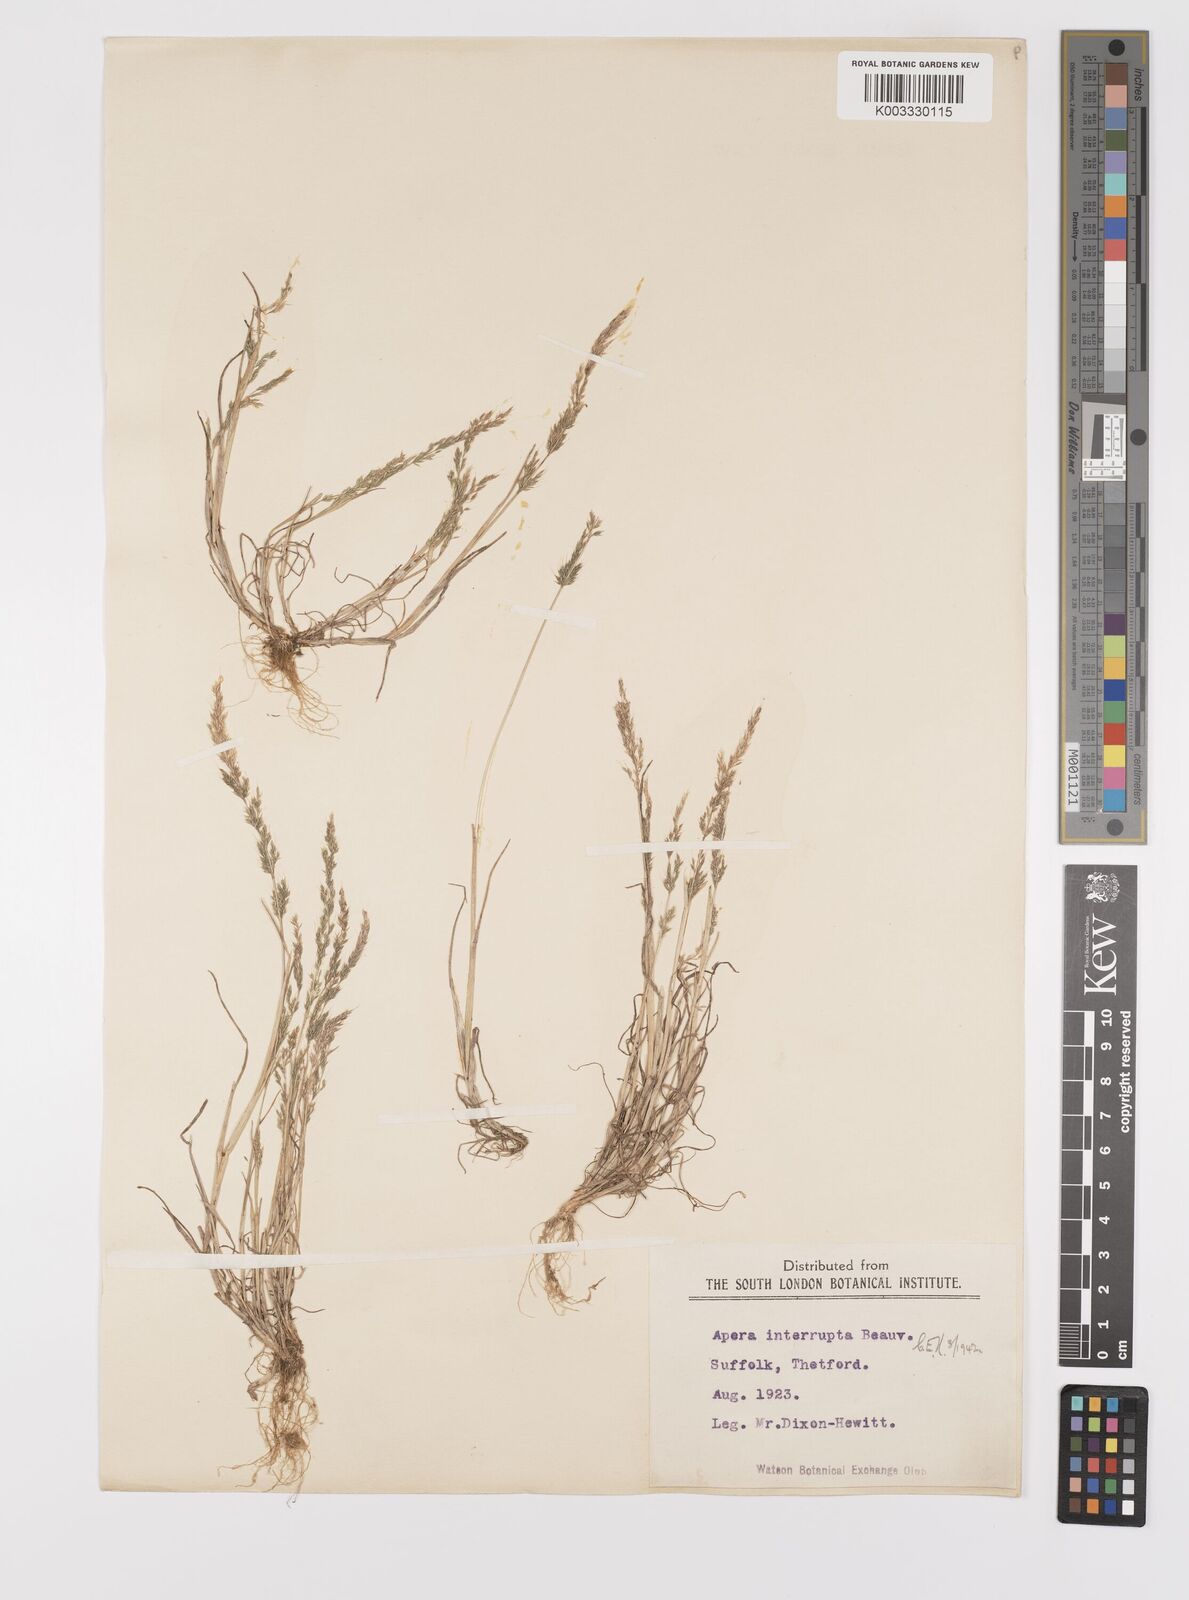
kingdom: Plantae
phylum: Tracheophyta
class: Liliopsida
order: Poales
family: Poaceae
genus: Apera
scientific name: Apera interrupta
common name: Dense silky-bent
